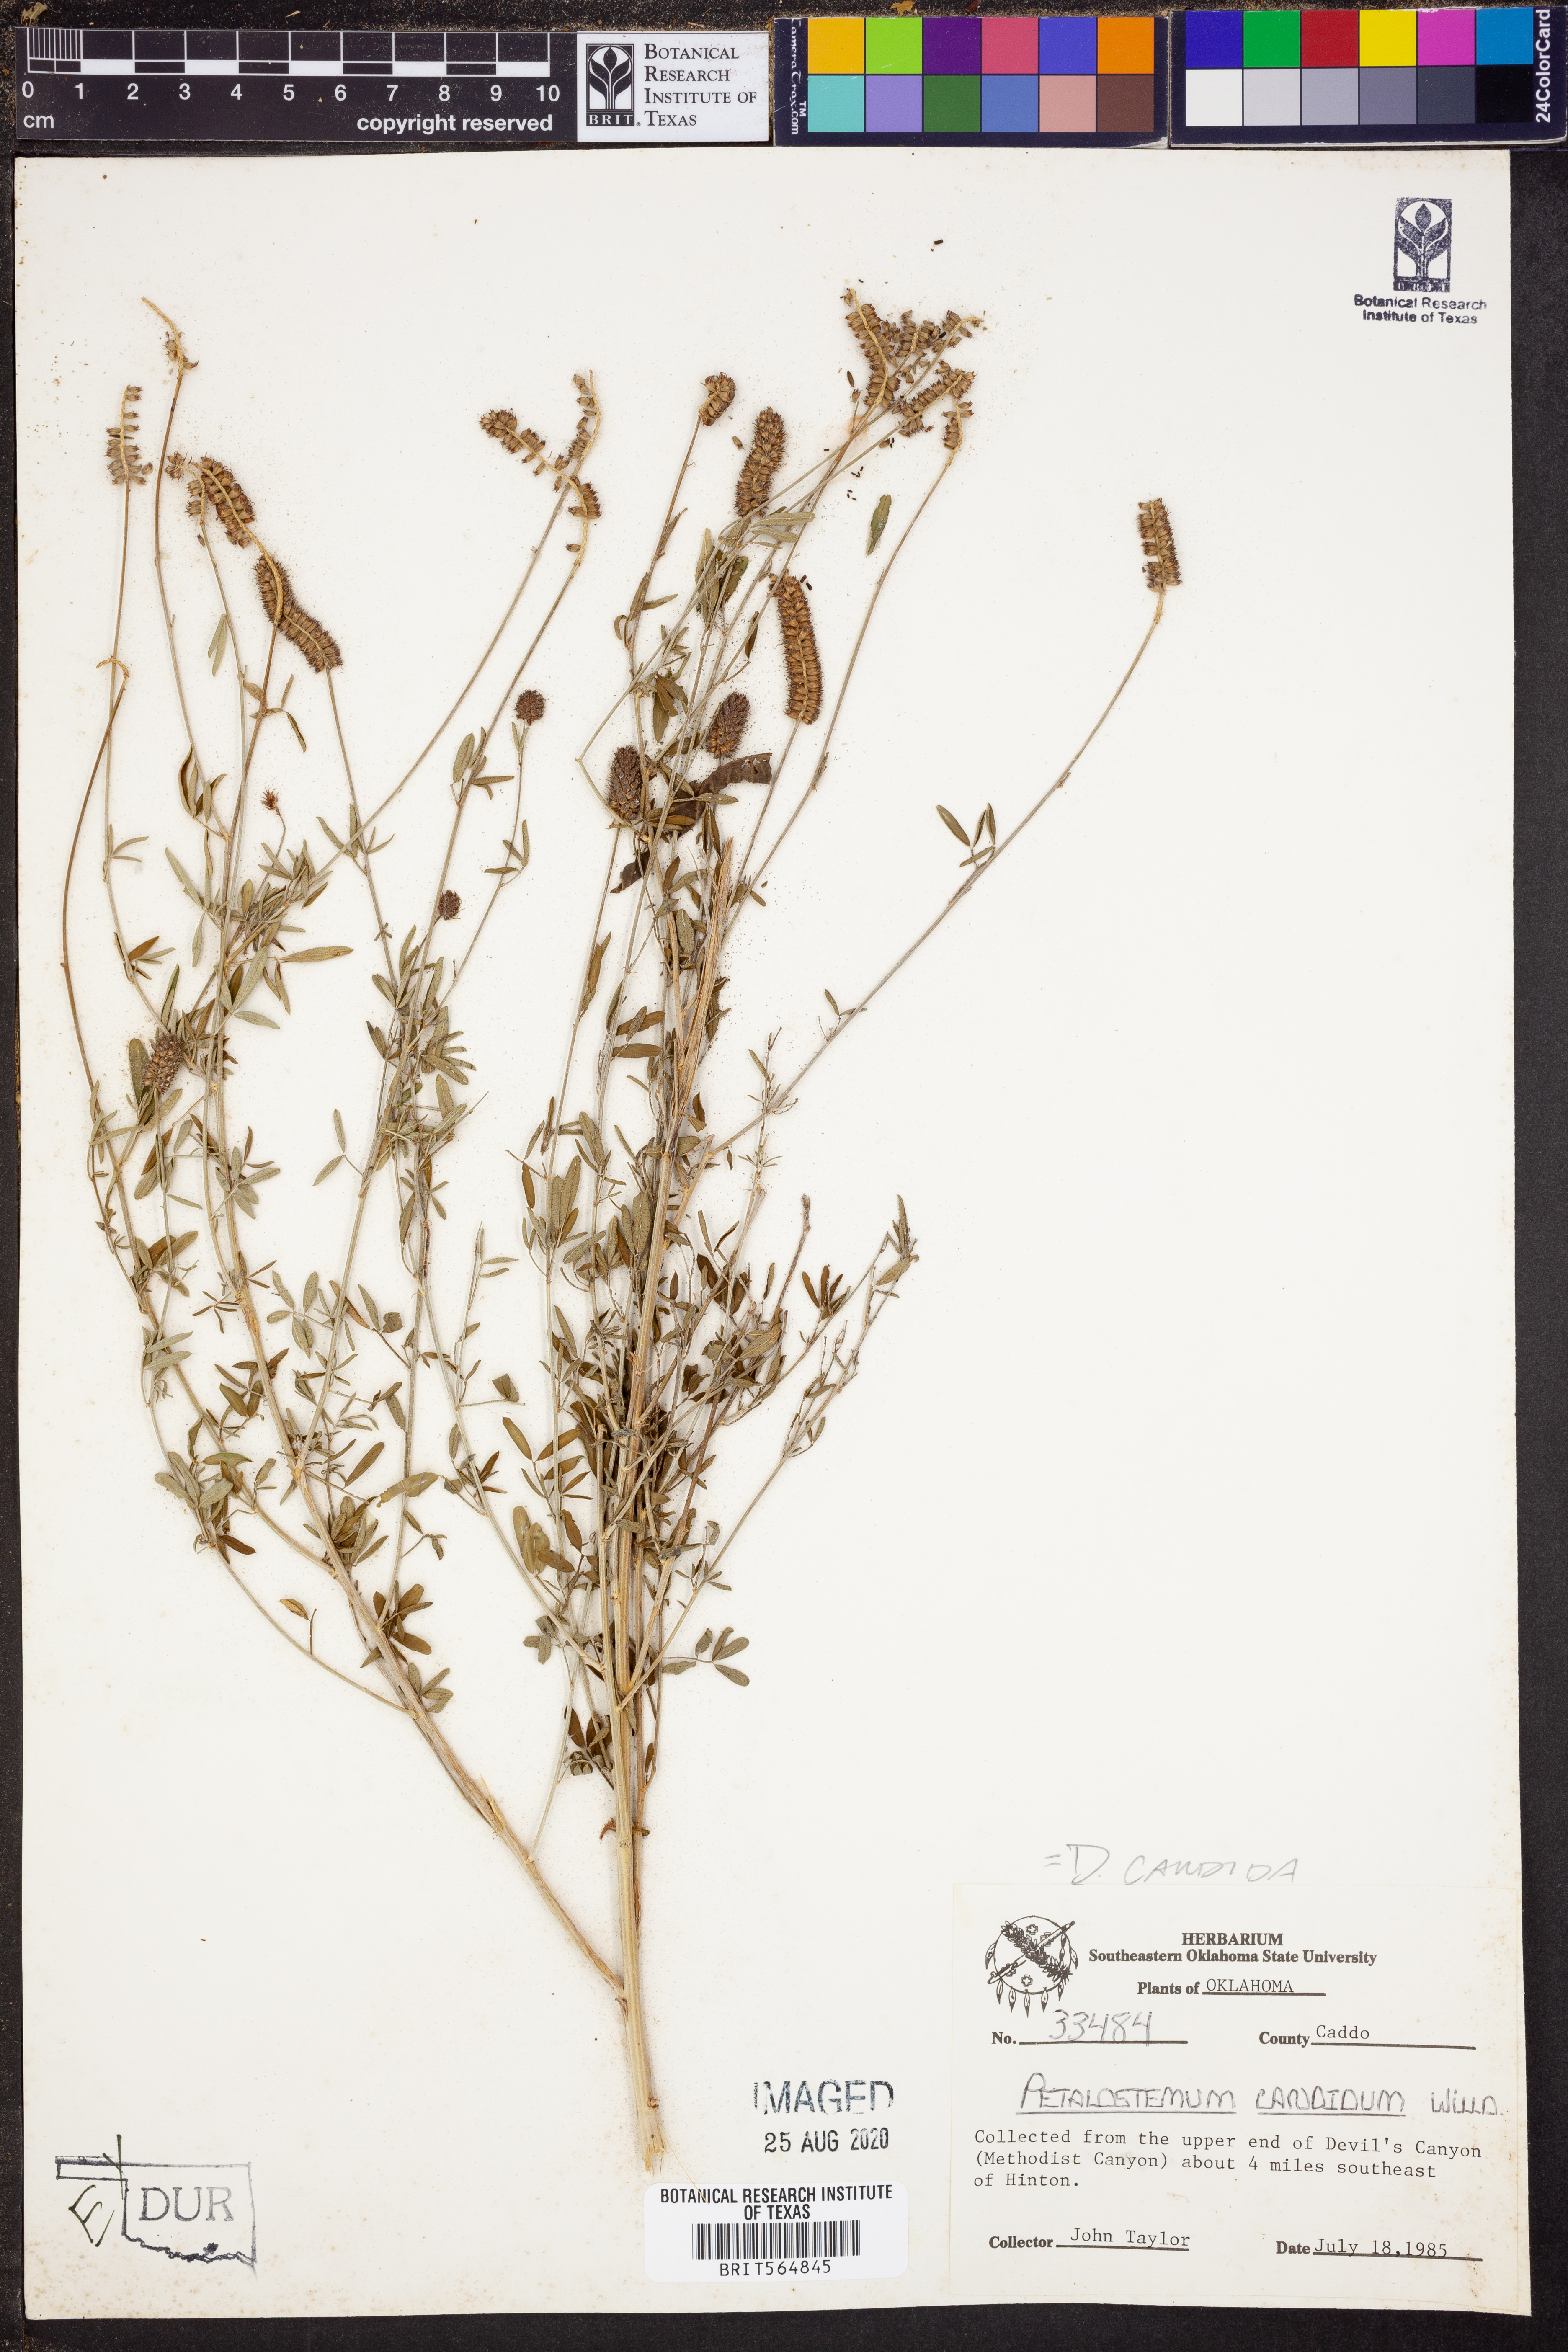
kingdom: Plantae
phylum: Tracheophyta
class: Magnoliopsida
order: Fabales
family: Fabaceae
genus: Dalea
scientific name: Dalea candida
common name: White prairie-clover
